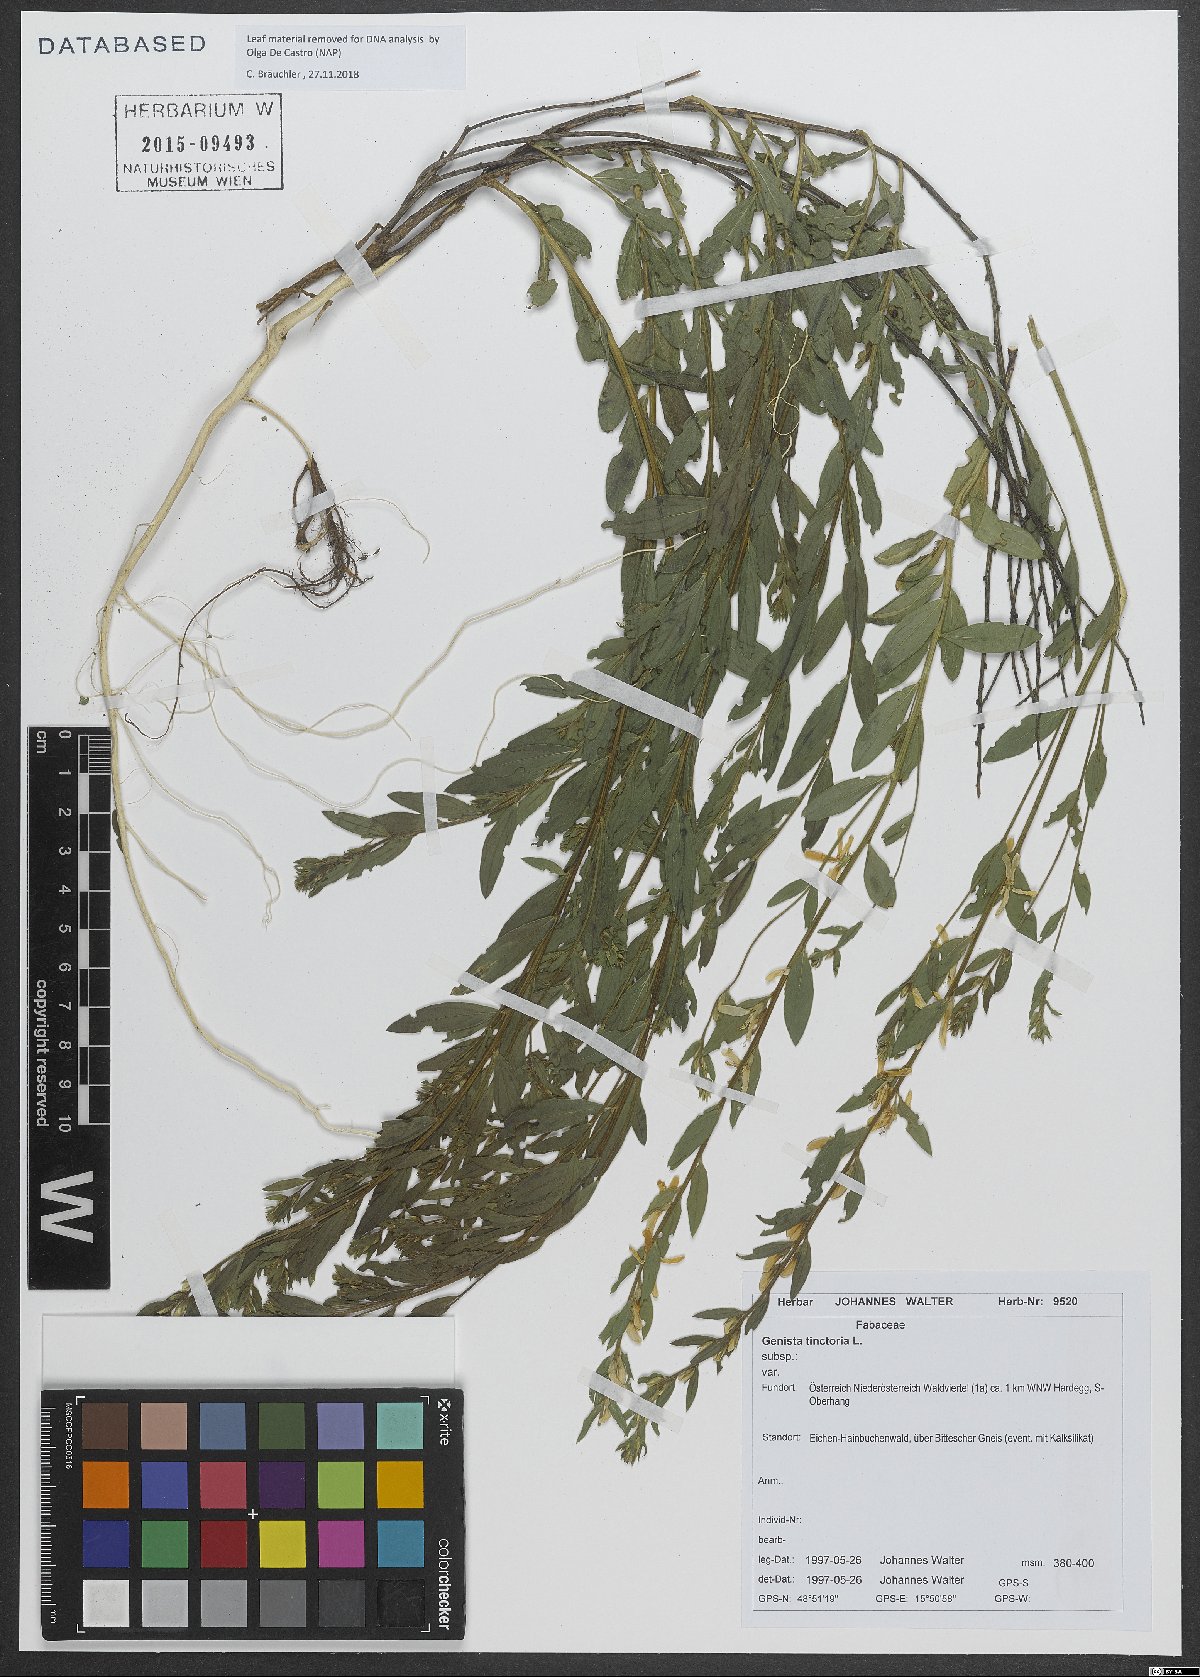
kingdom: Plantae
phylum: Tracheophyta
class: Magnoliopsida
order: Fabales
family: Fabaceae
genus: Genista
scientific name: Genista tinctoria
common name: Dyer's greenweed
